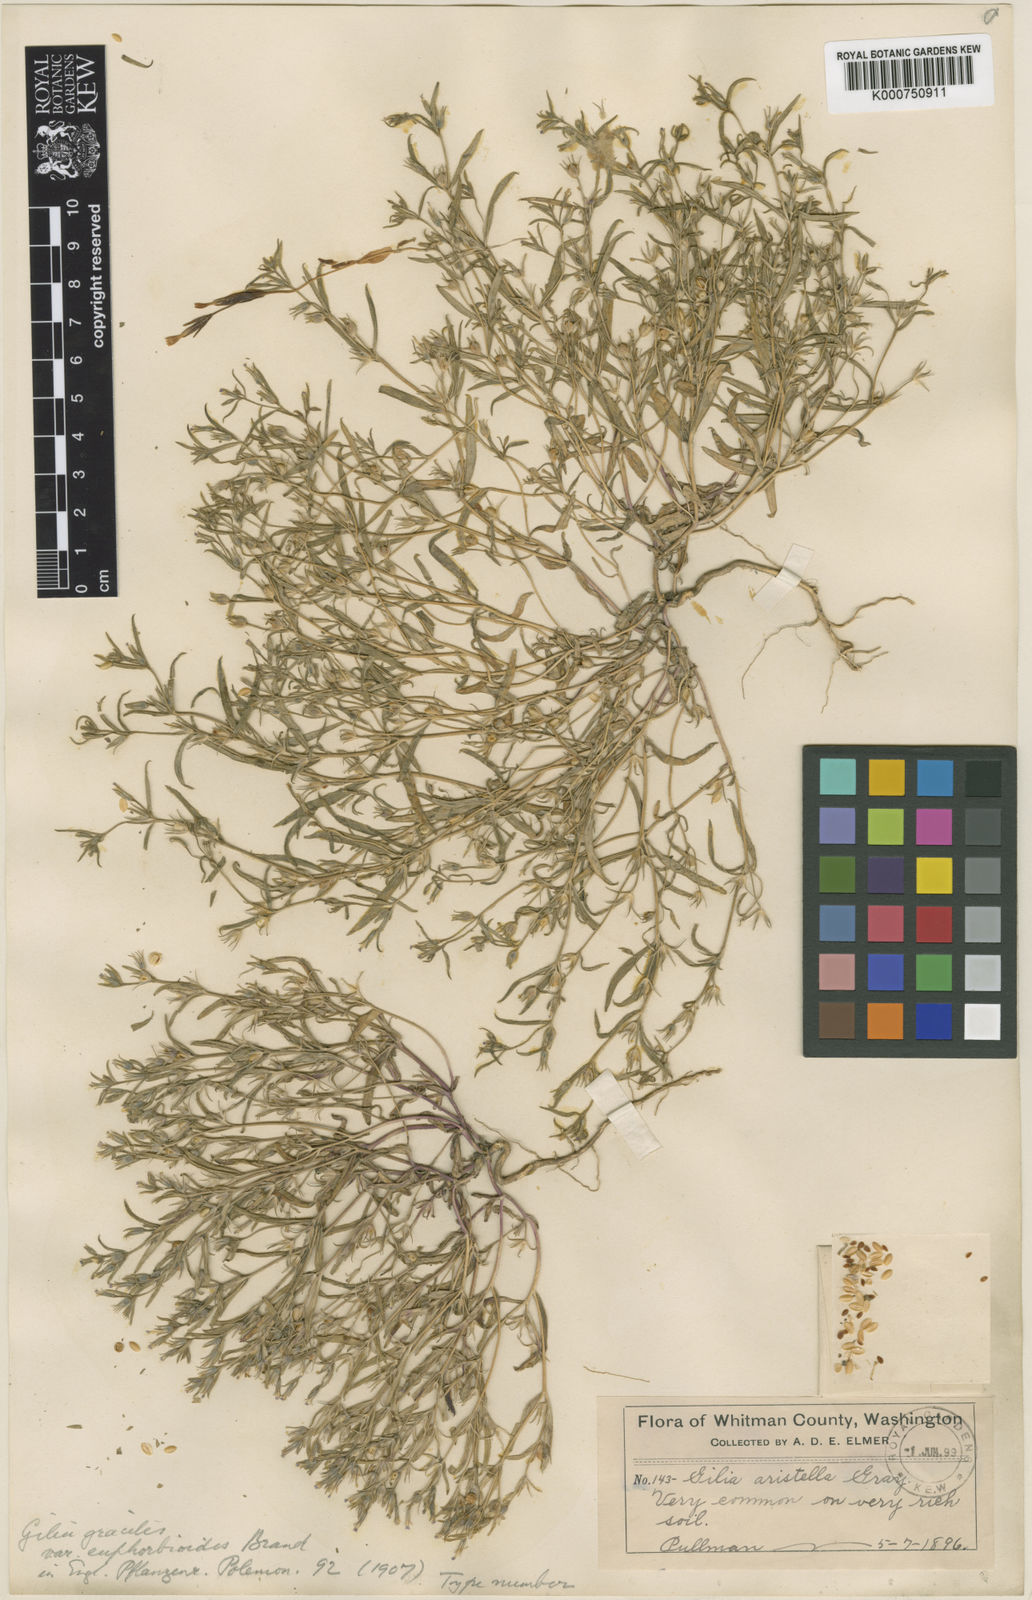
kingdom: Plantae
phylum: Tracheophyta
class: Magnoliopsida
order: Ericales
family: Polemoniaceae
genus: Phlox
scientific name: Phlox gracilis
